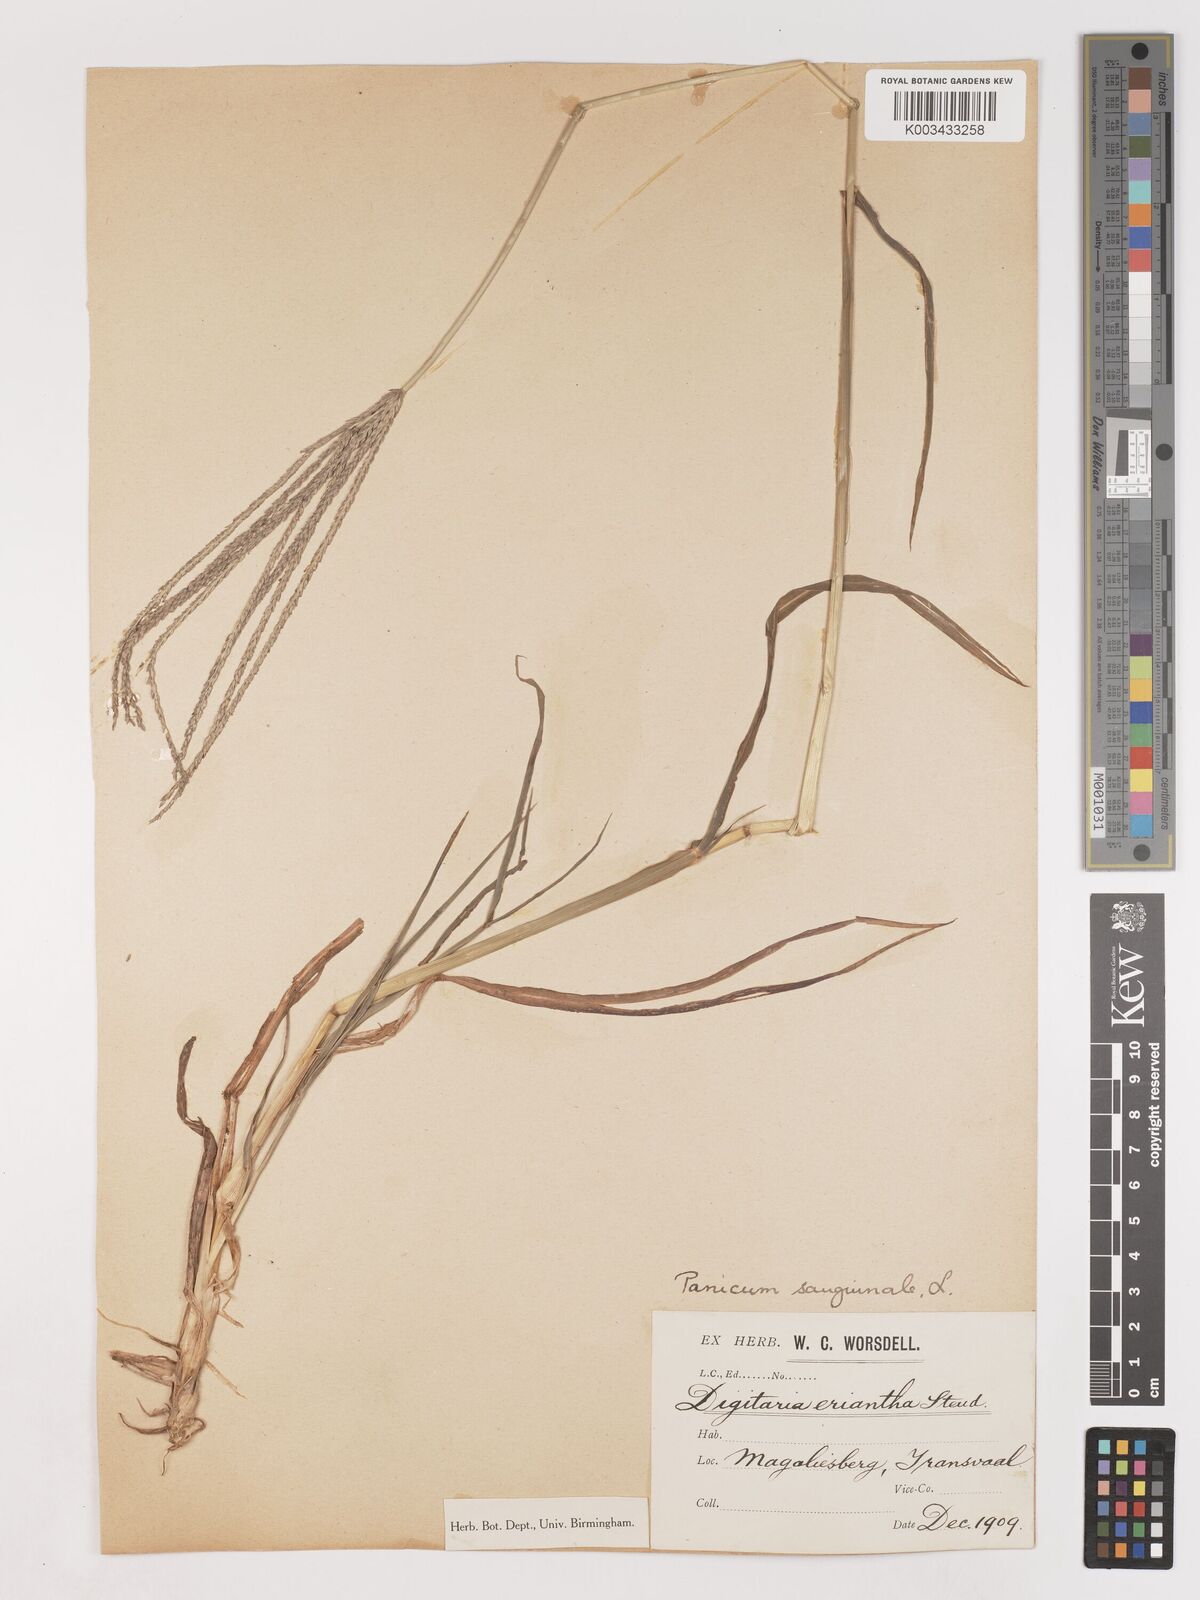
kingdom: Plantae
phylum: Tracheophyta
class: Liliopsida
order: Poales
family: Poaceae
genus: Digitaria
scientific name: Digitaria eriantha
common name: Digitgrass
